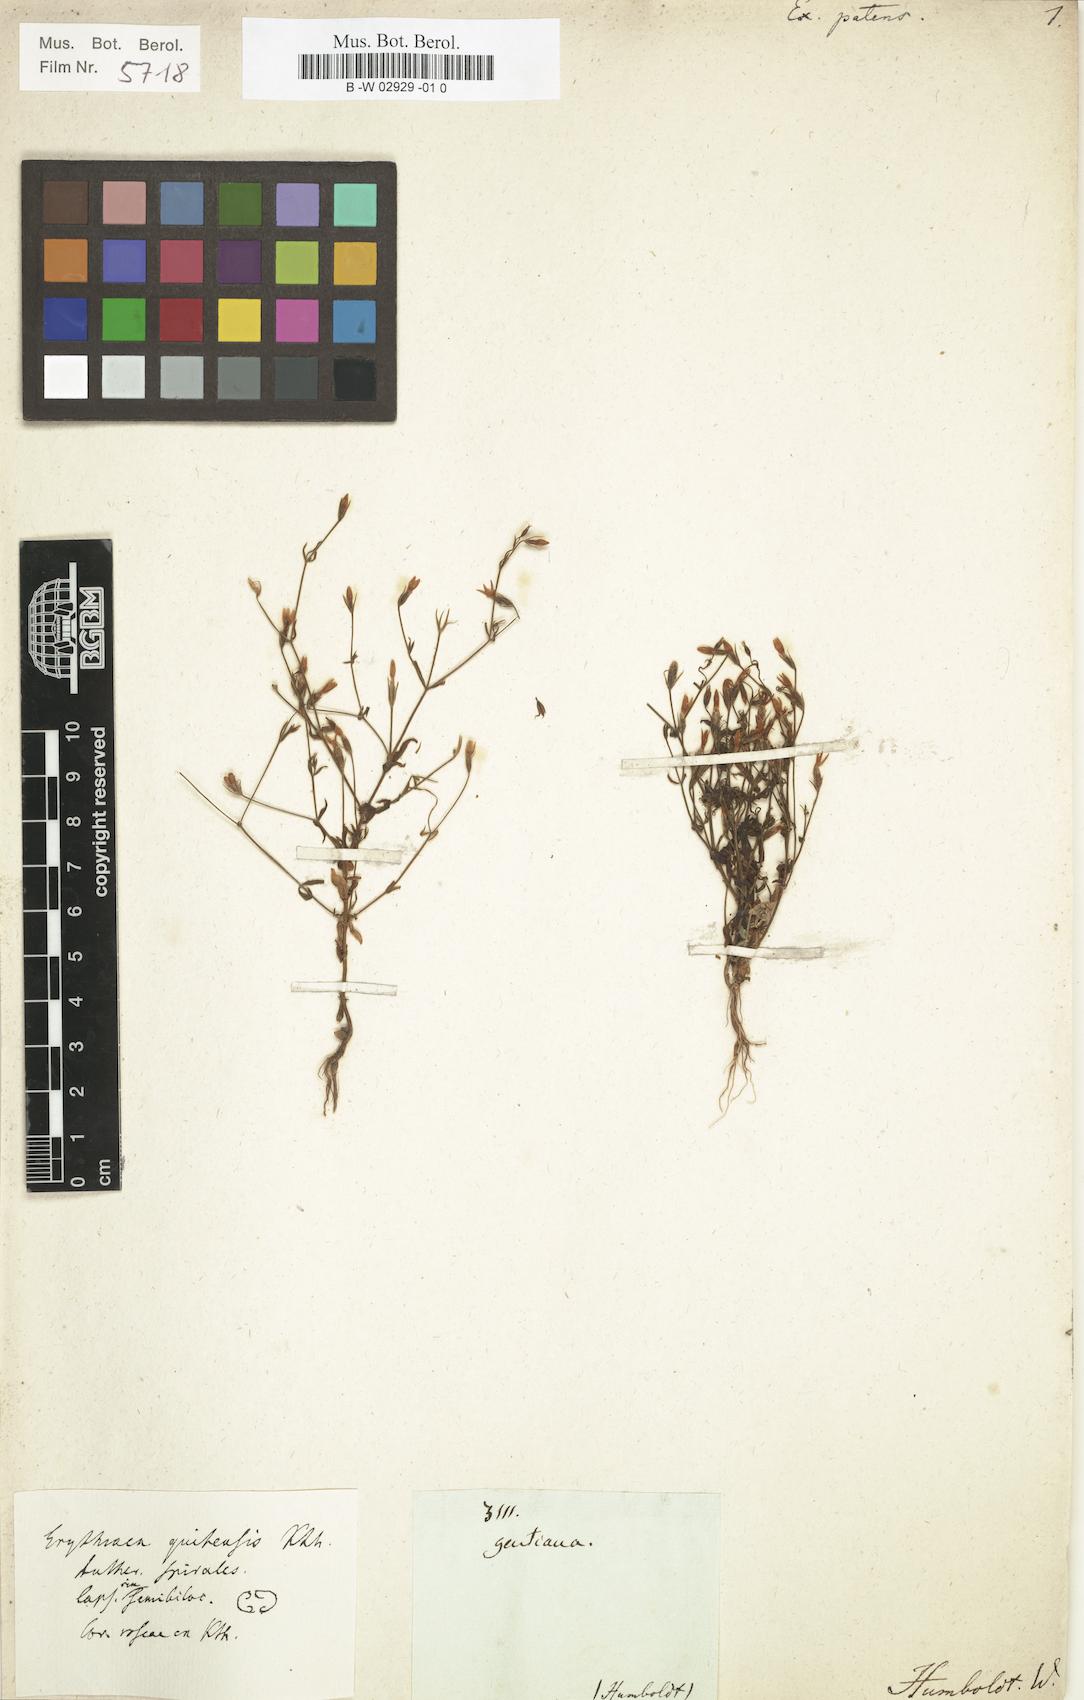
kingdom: Plantae
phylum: Tracheophyta
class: Magnoliopsida
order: Gentianales
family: Gentianaceae
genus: Zeltnera
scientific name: Zeltnera quitensis
